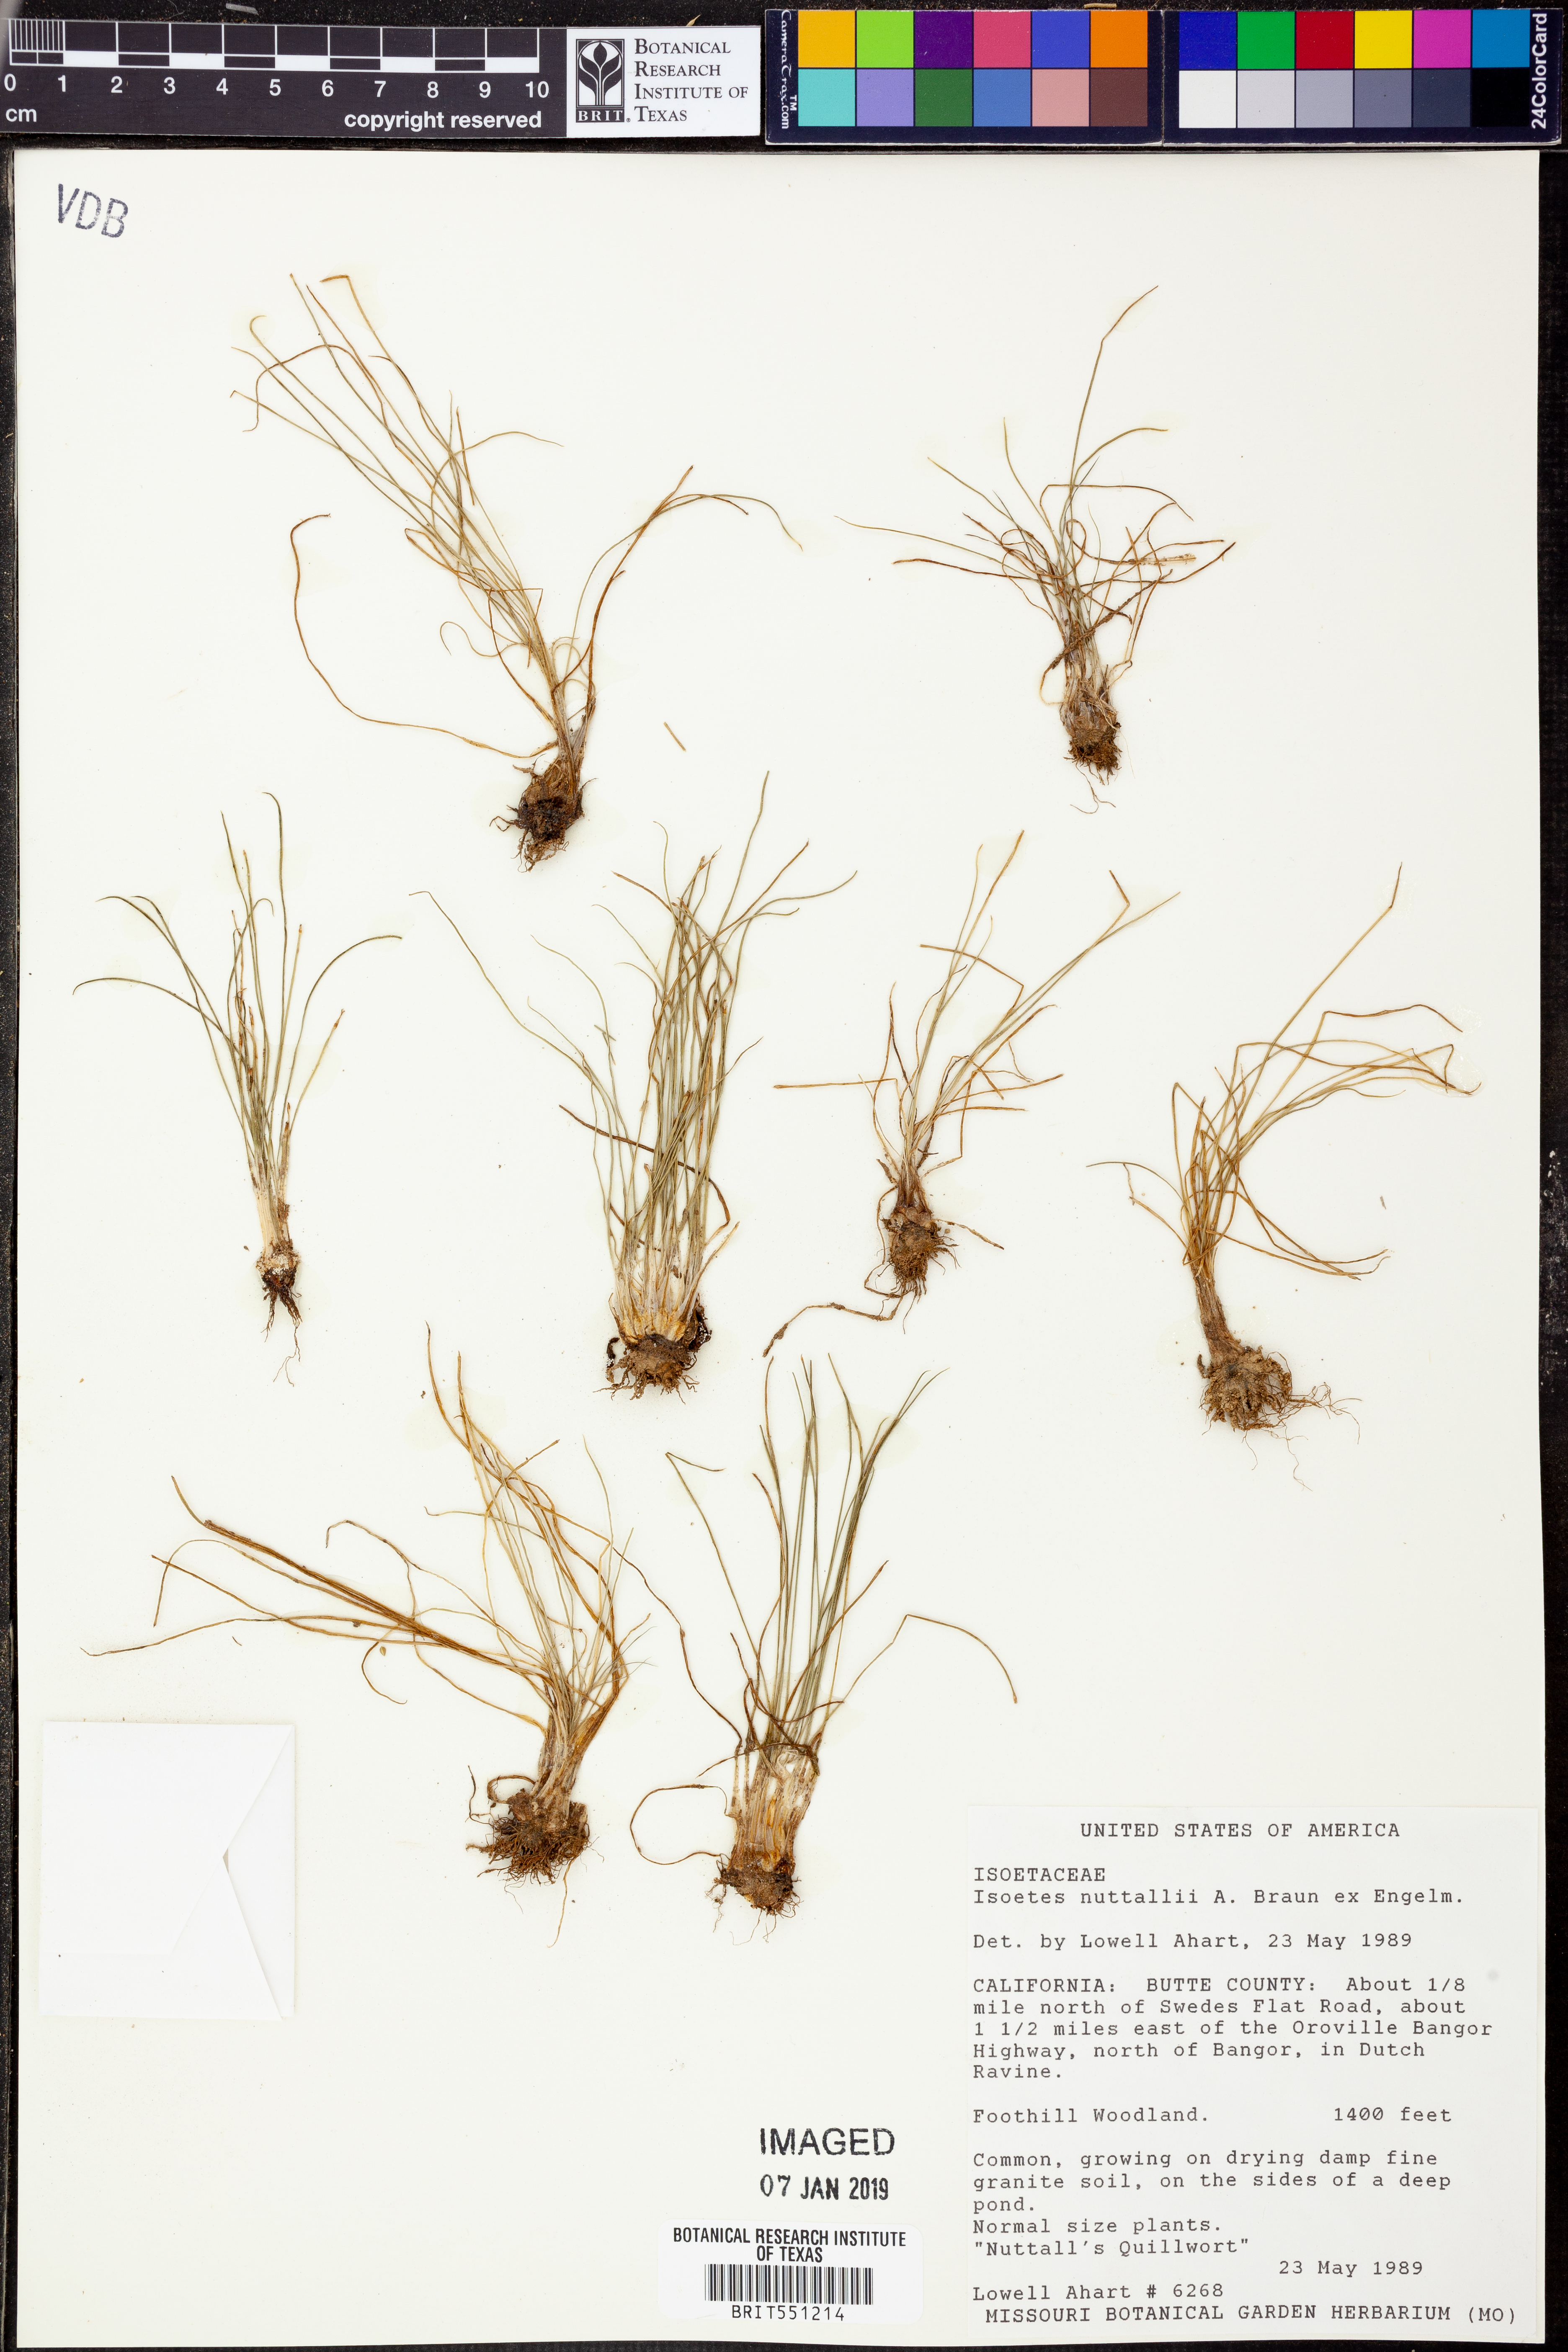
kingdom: Plantae
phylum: Tracheophyta
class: Lycopodiopsida
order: Isoetales
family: Isoetaceae
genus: Isoetes
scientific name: Isoetes nuttallii
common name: Nuttall's quillwort
